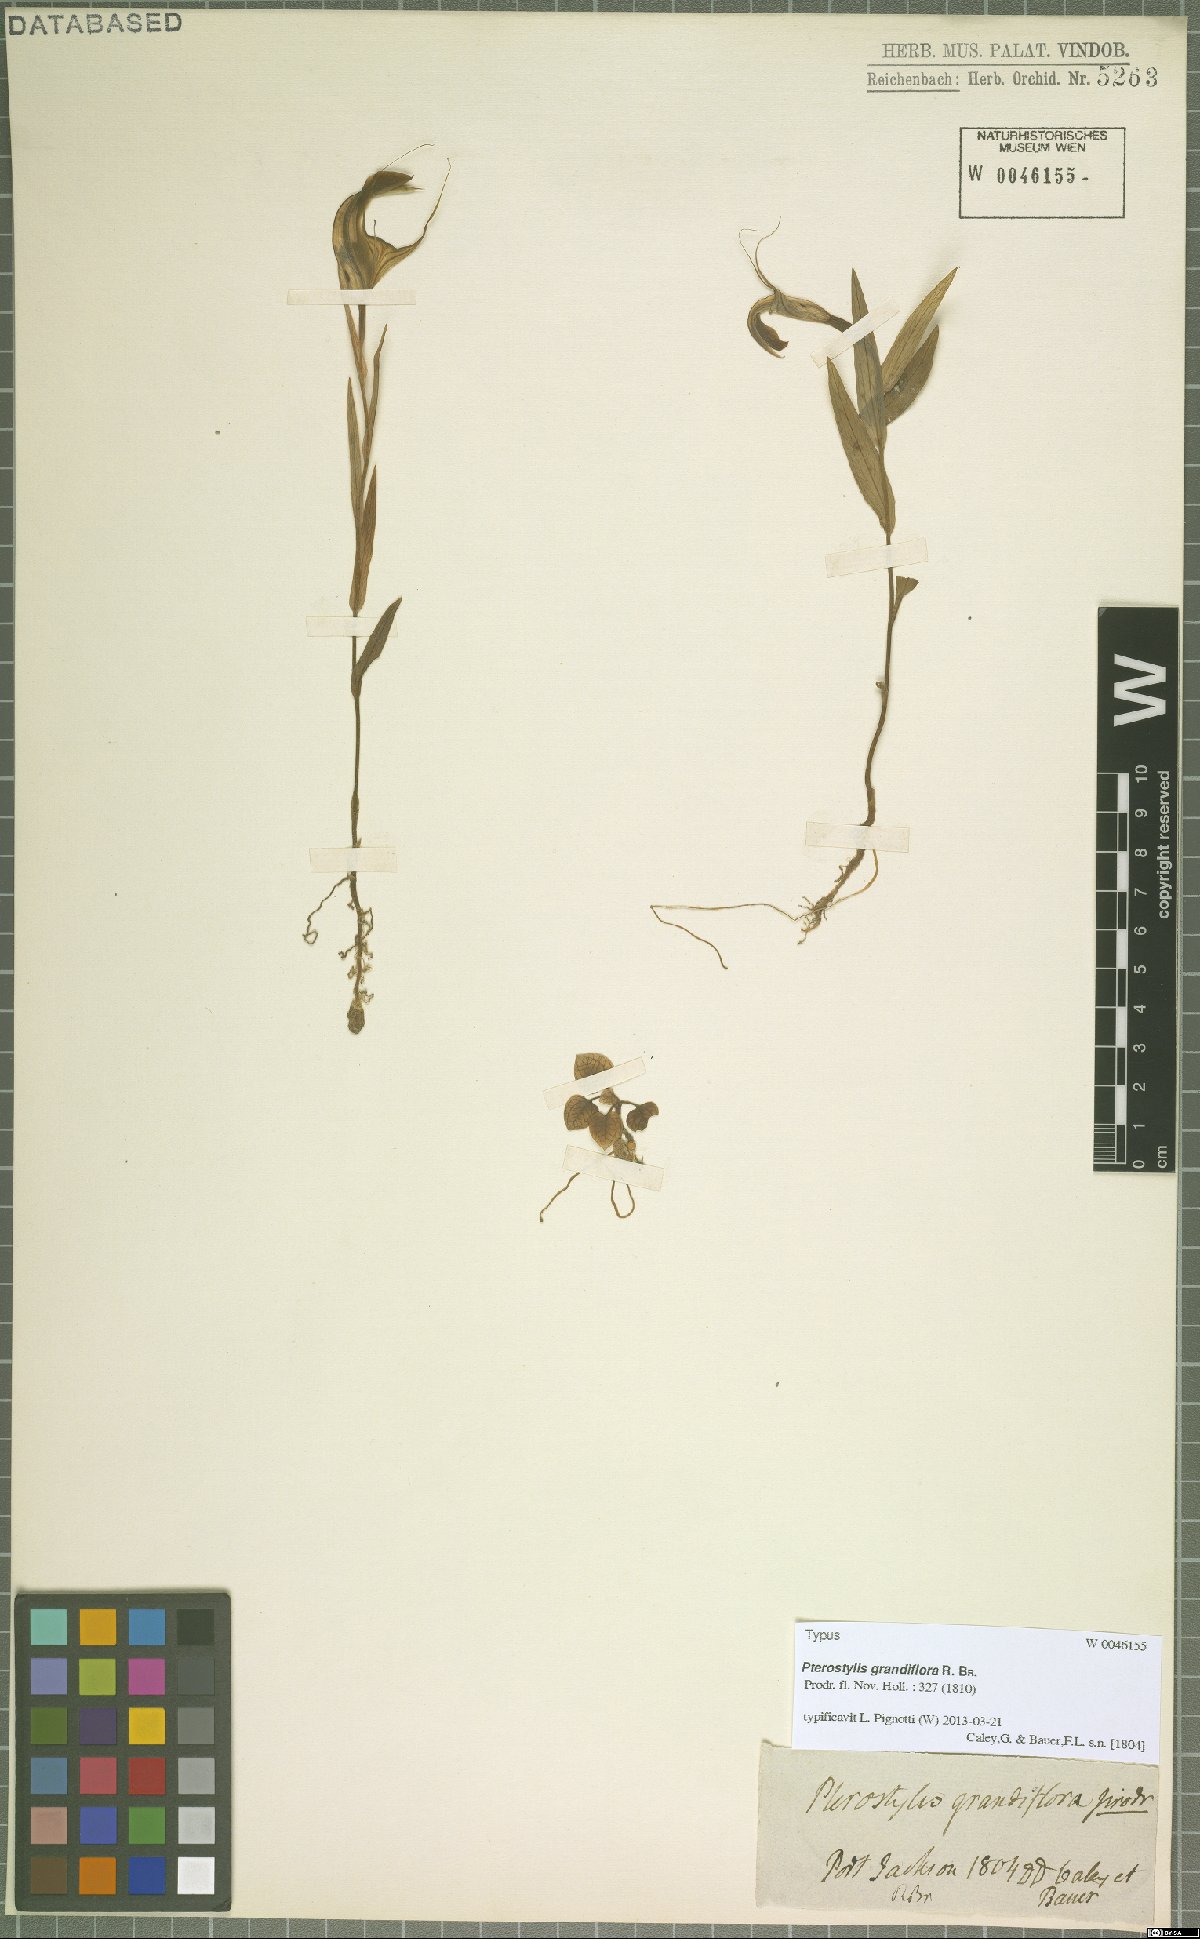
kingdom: Plantae
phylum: Tracheophyta
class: Liliopsida
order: Asparagales
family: Orchidaceae
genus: Pterostylis
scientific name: Pterostylis grandiflora
